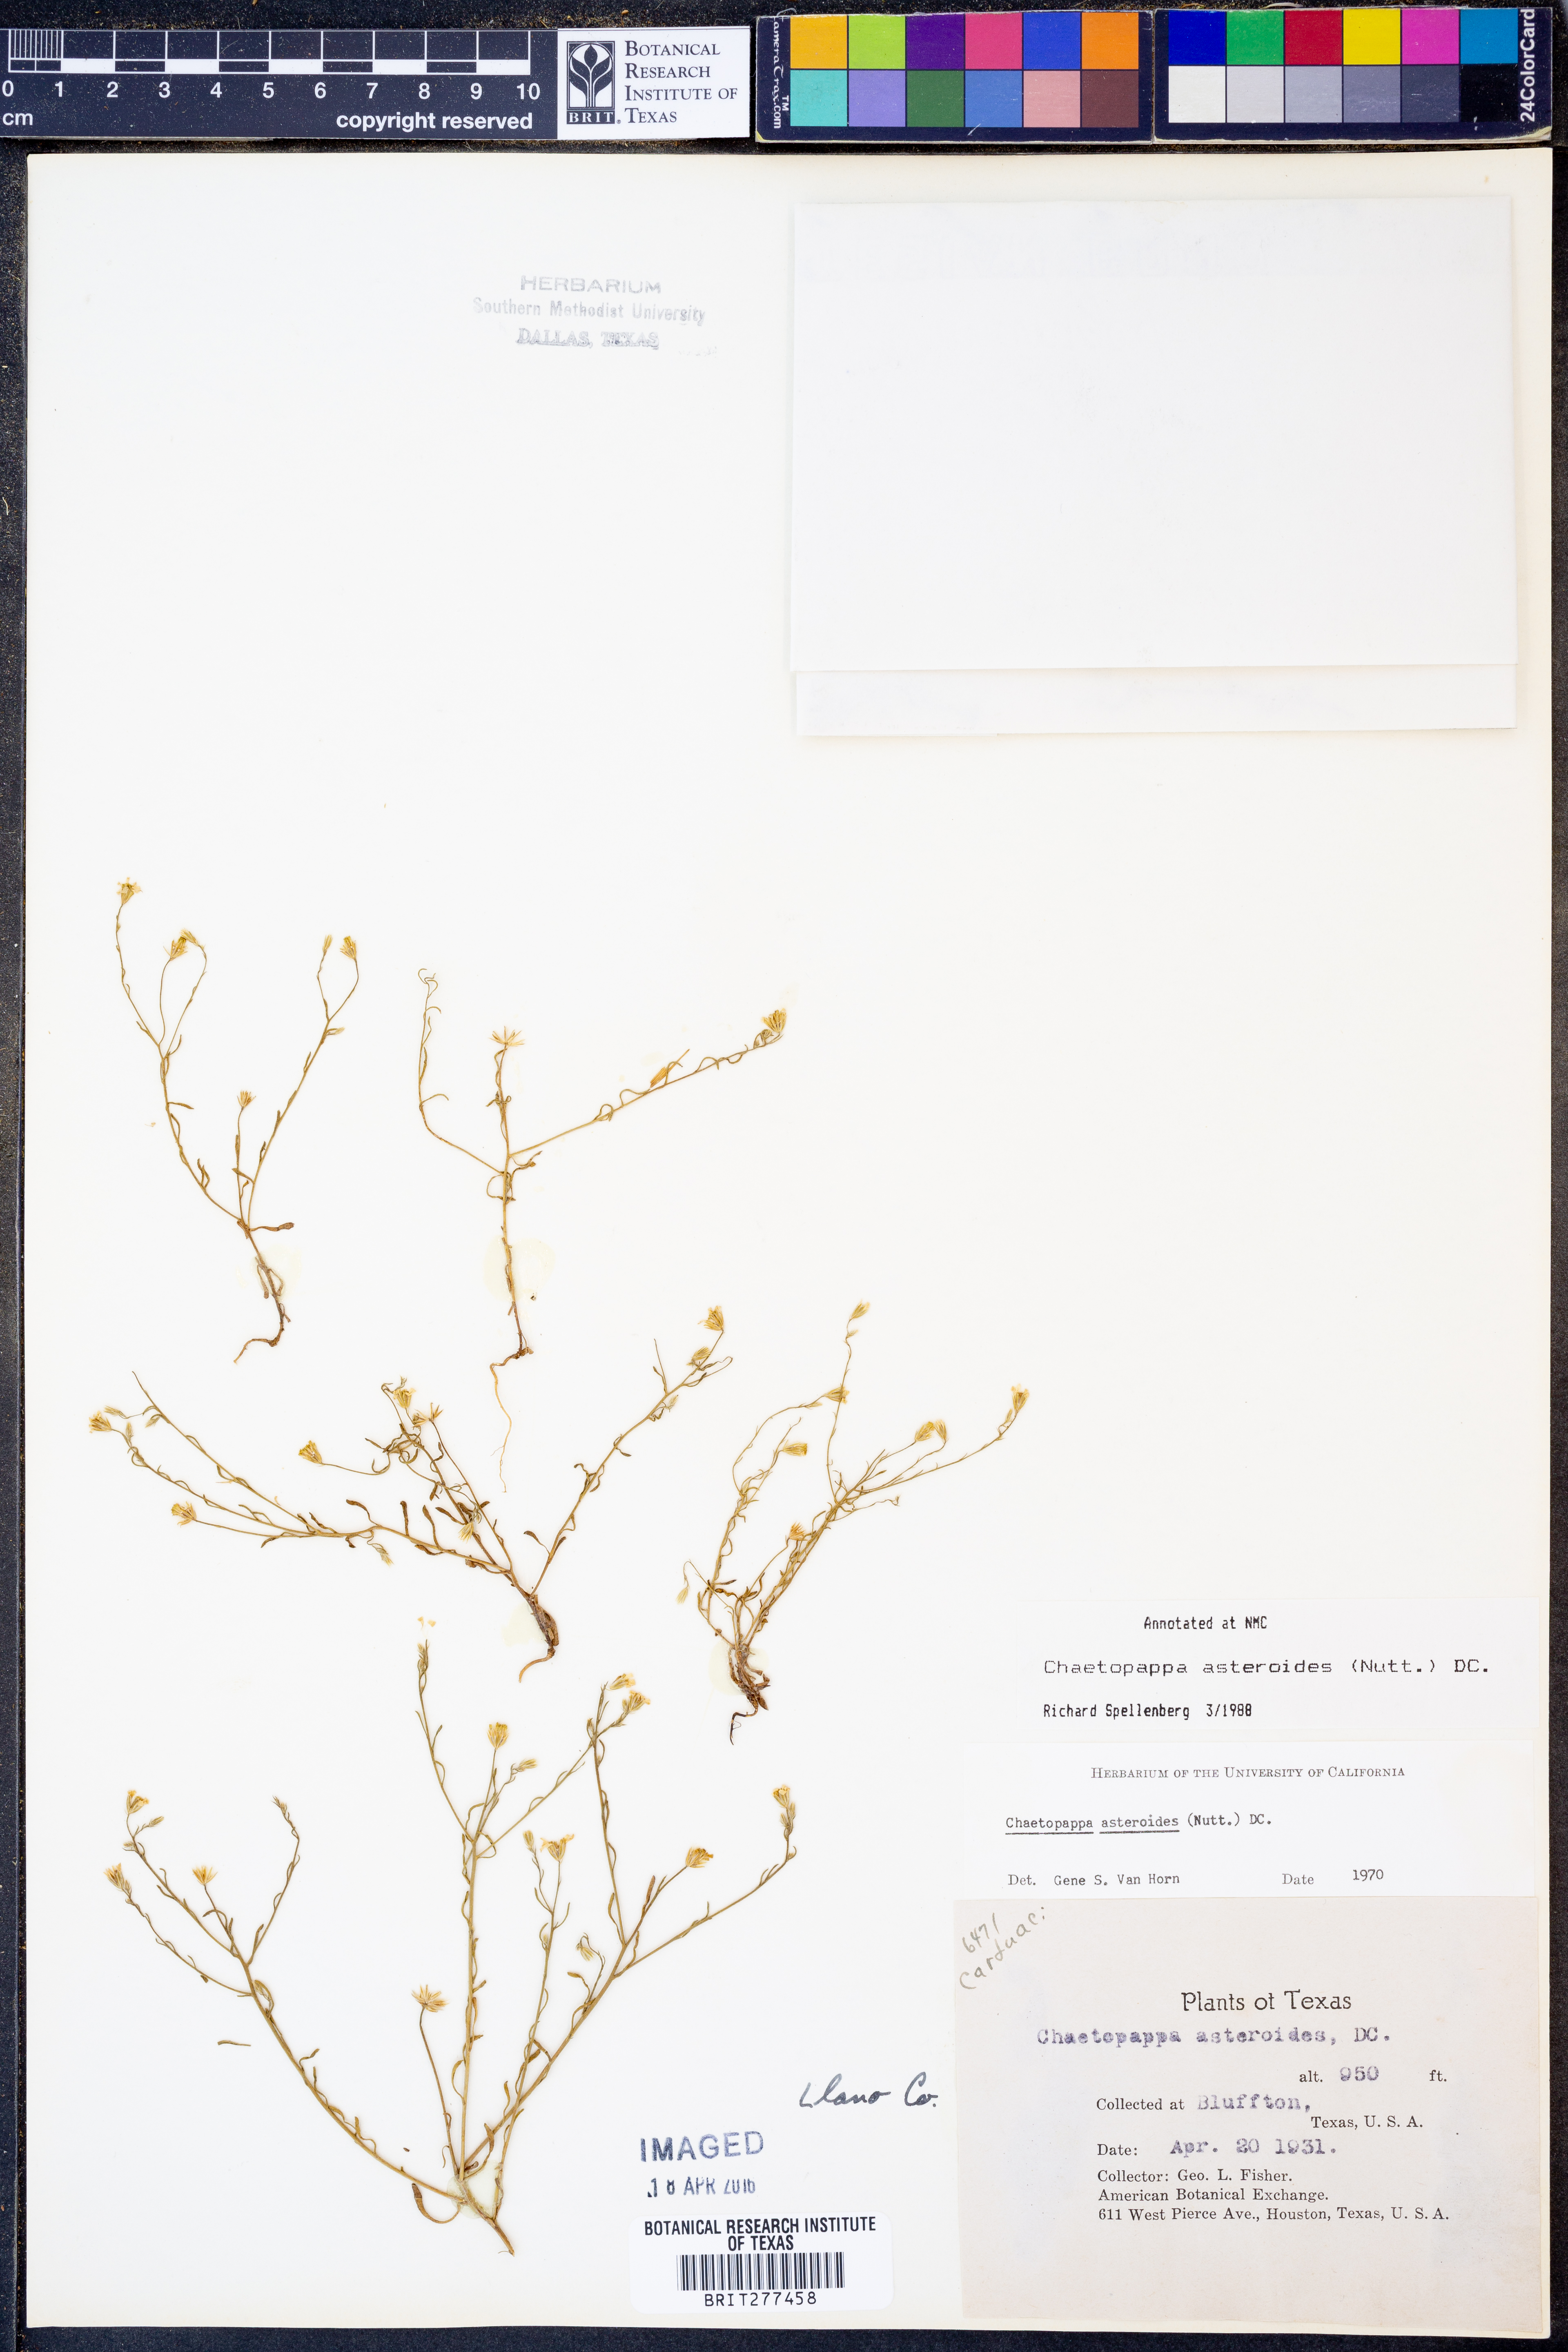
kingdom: Plantae
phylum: Tracheophyta
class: Magnoliopsida
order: Asterales
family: Asteraceae
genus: Chaetopappa
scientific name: Chaetopappa asteroides
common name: Tiny lazy daisy
